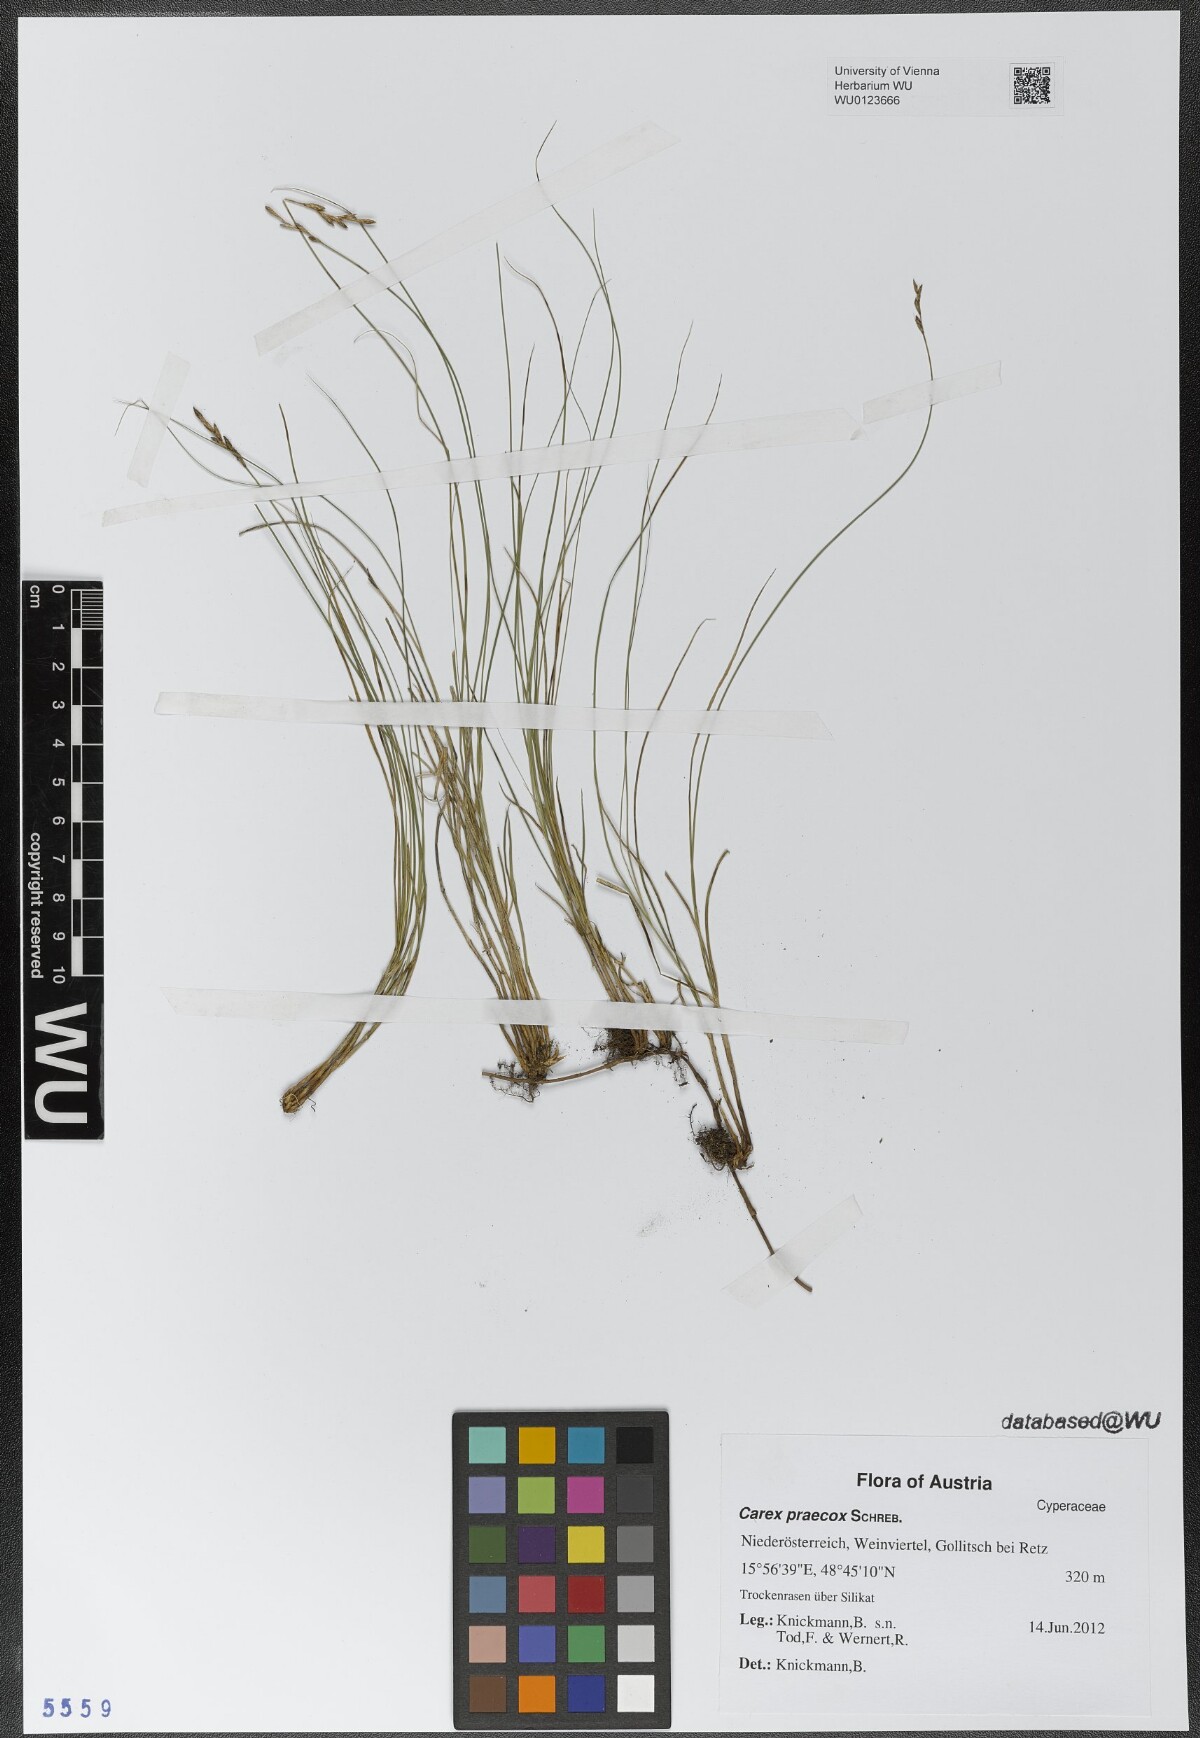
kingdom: Plantae
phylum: Tracheophyta
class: Liliopsida
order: Poales
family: Cyperaceae
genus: Carex
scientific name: Carex praecox
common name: Early sedge
